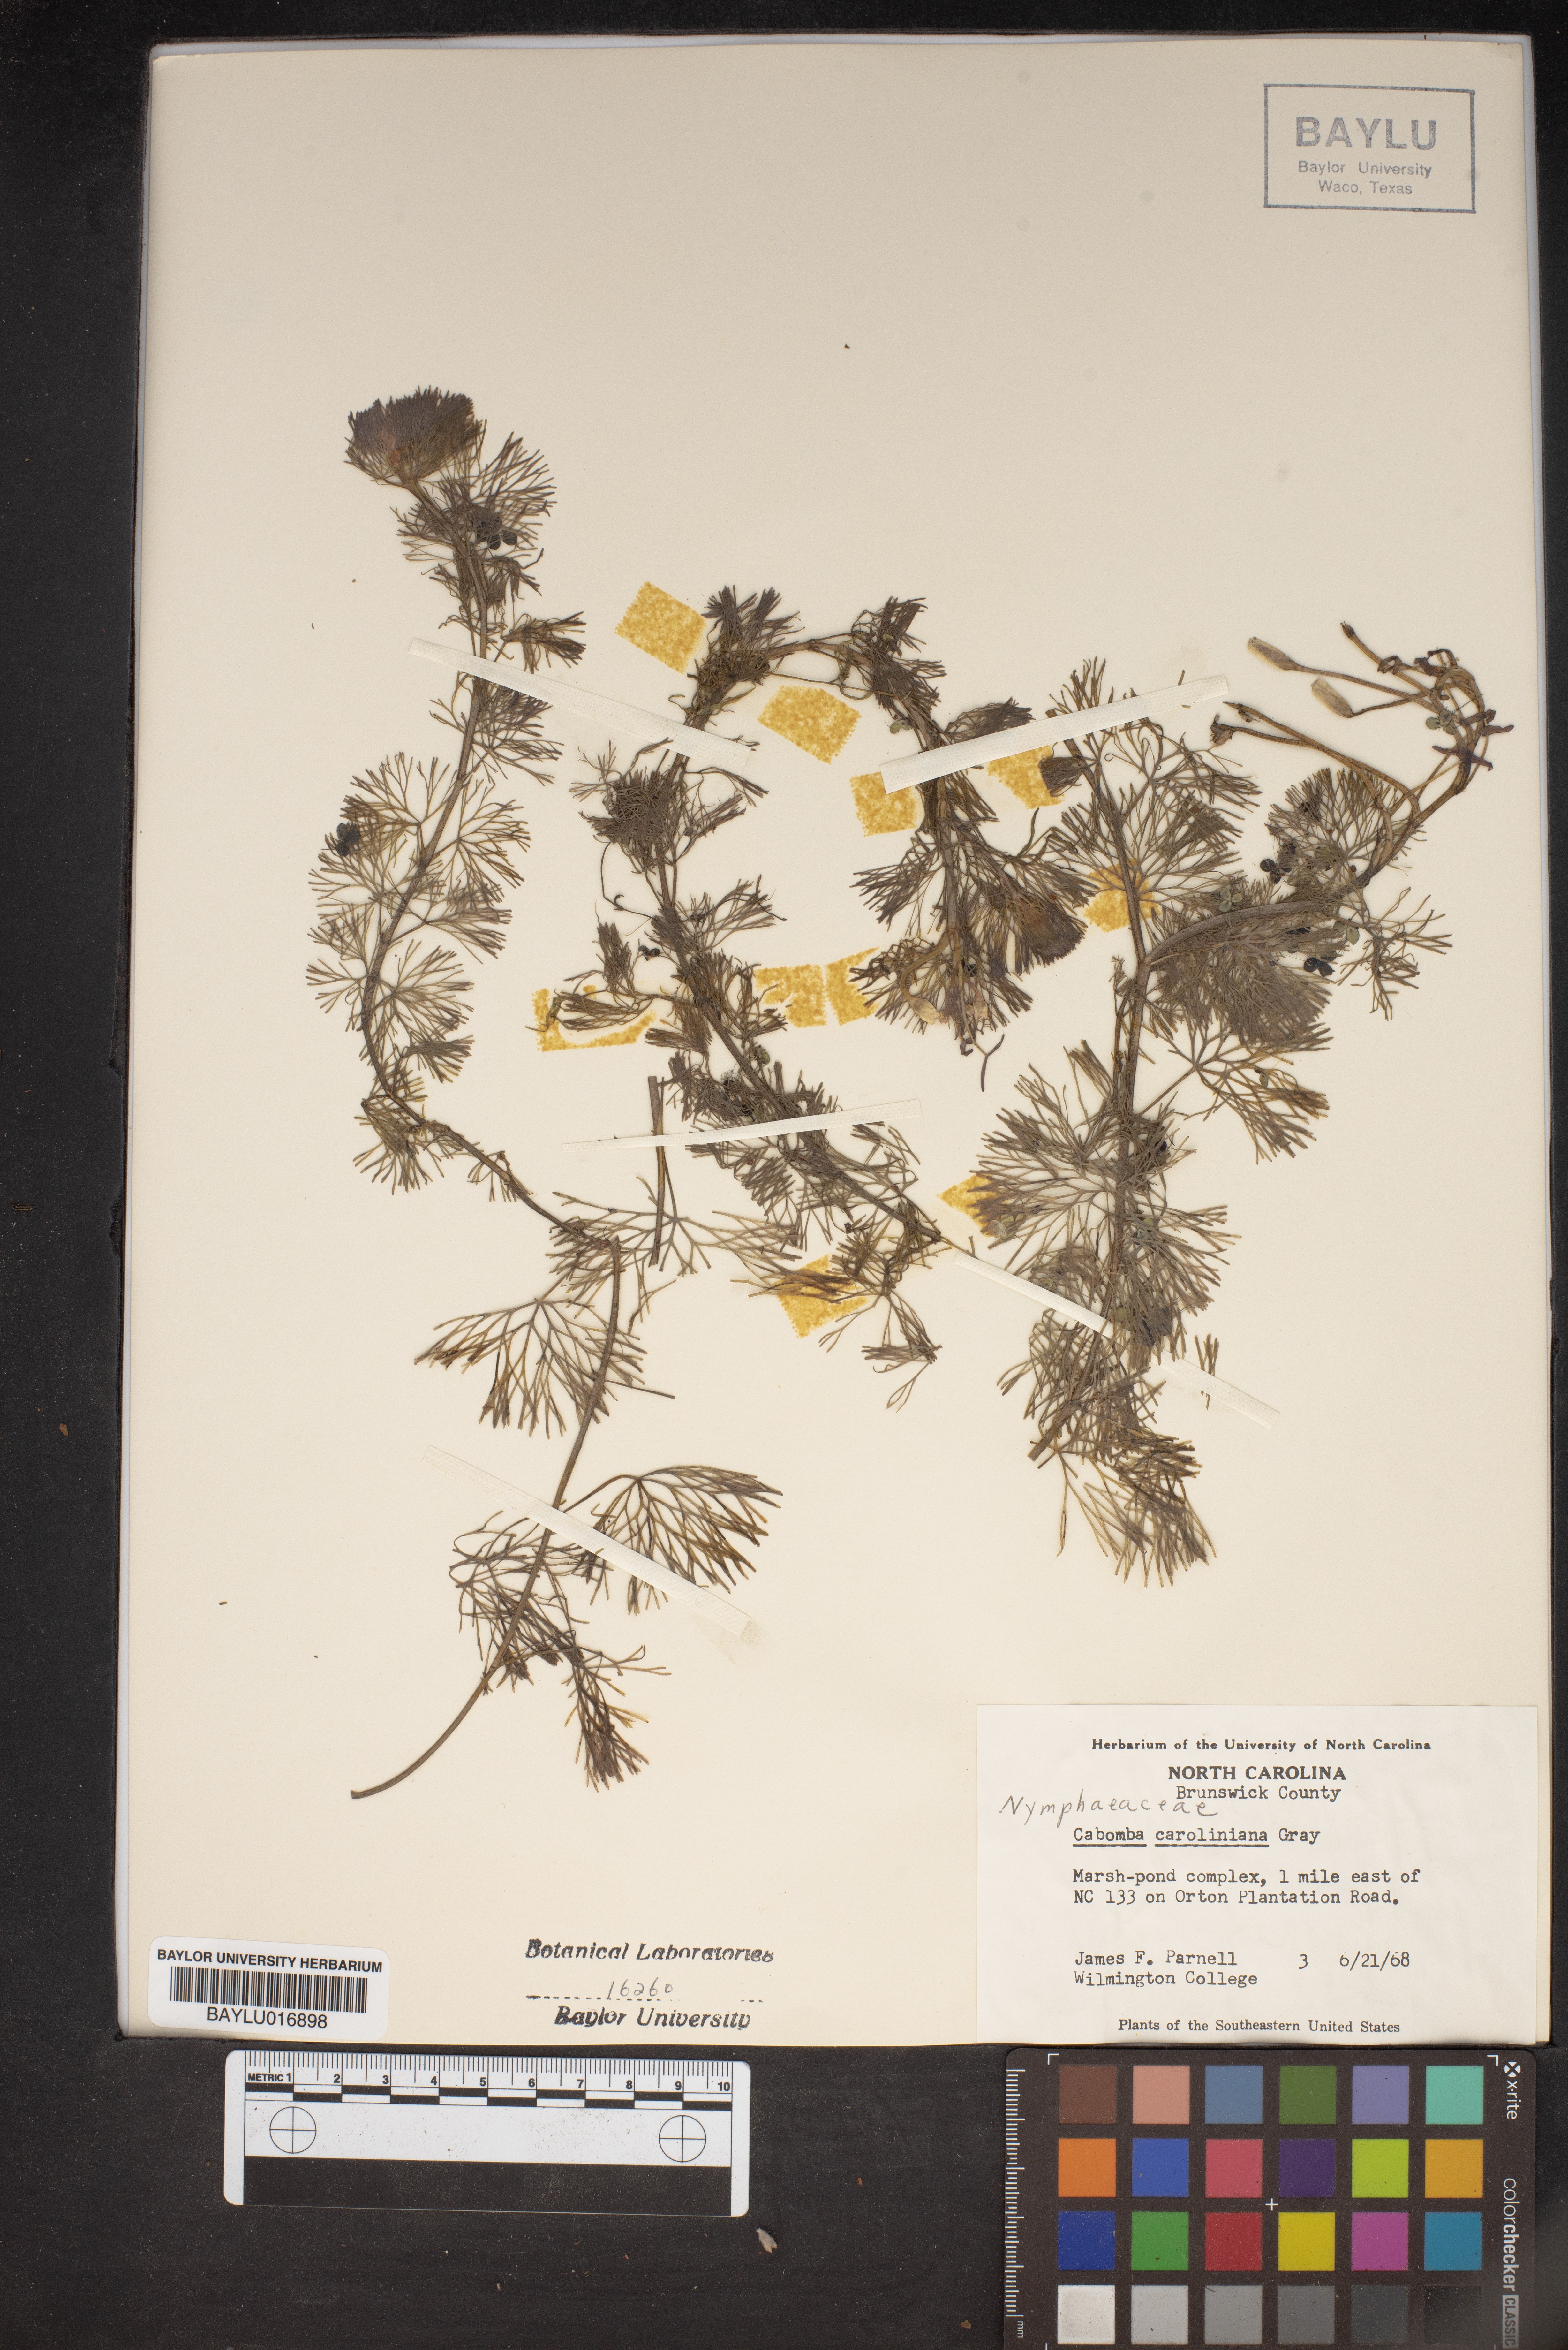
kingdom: Plantae
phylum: Tracheophyta
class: Magnoliopsida
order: Nymphaeales
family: Cabombaceae
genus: Cabomba
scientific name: Cabomba caroliniana
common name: Fanwort
